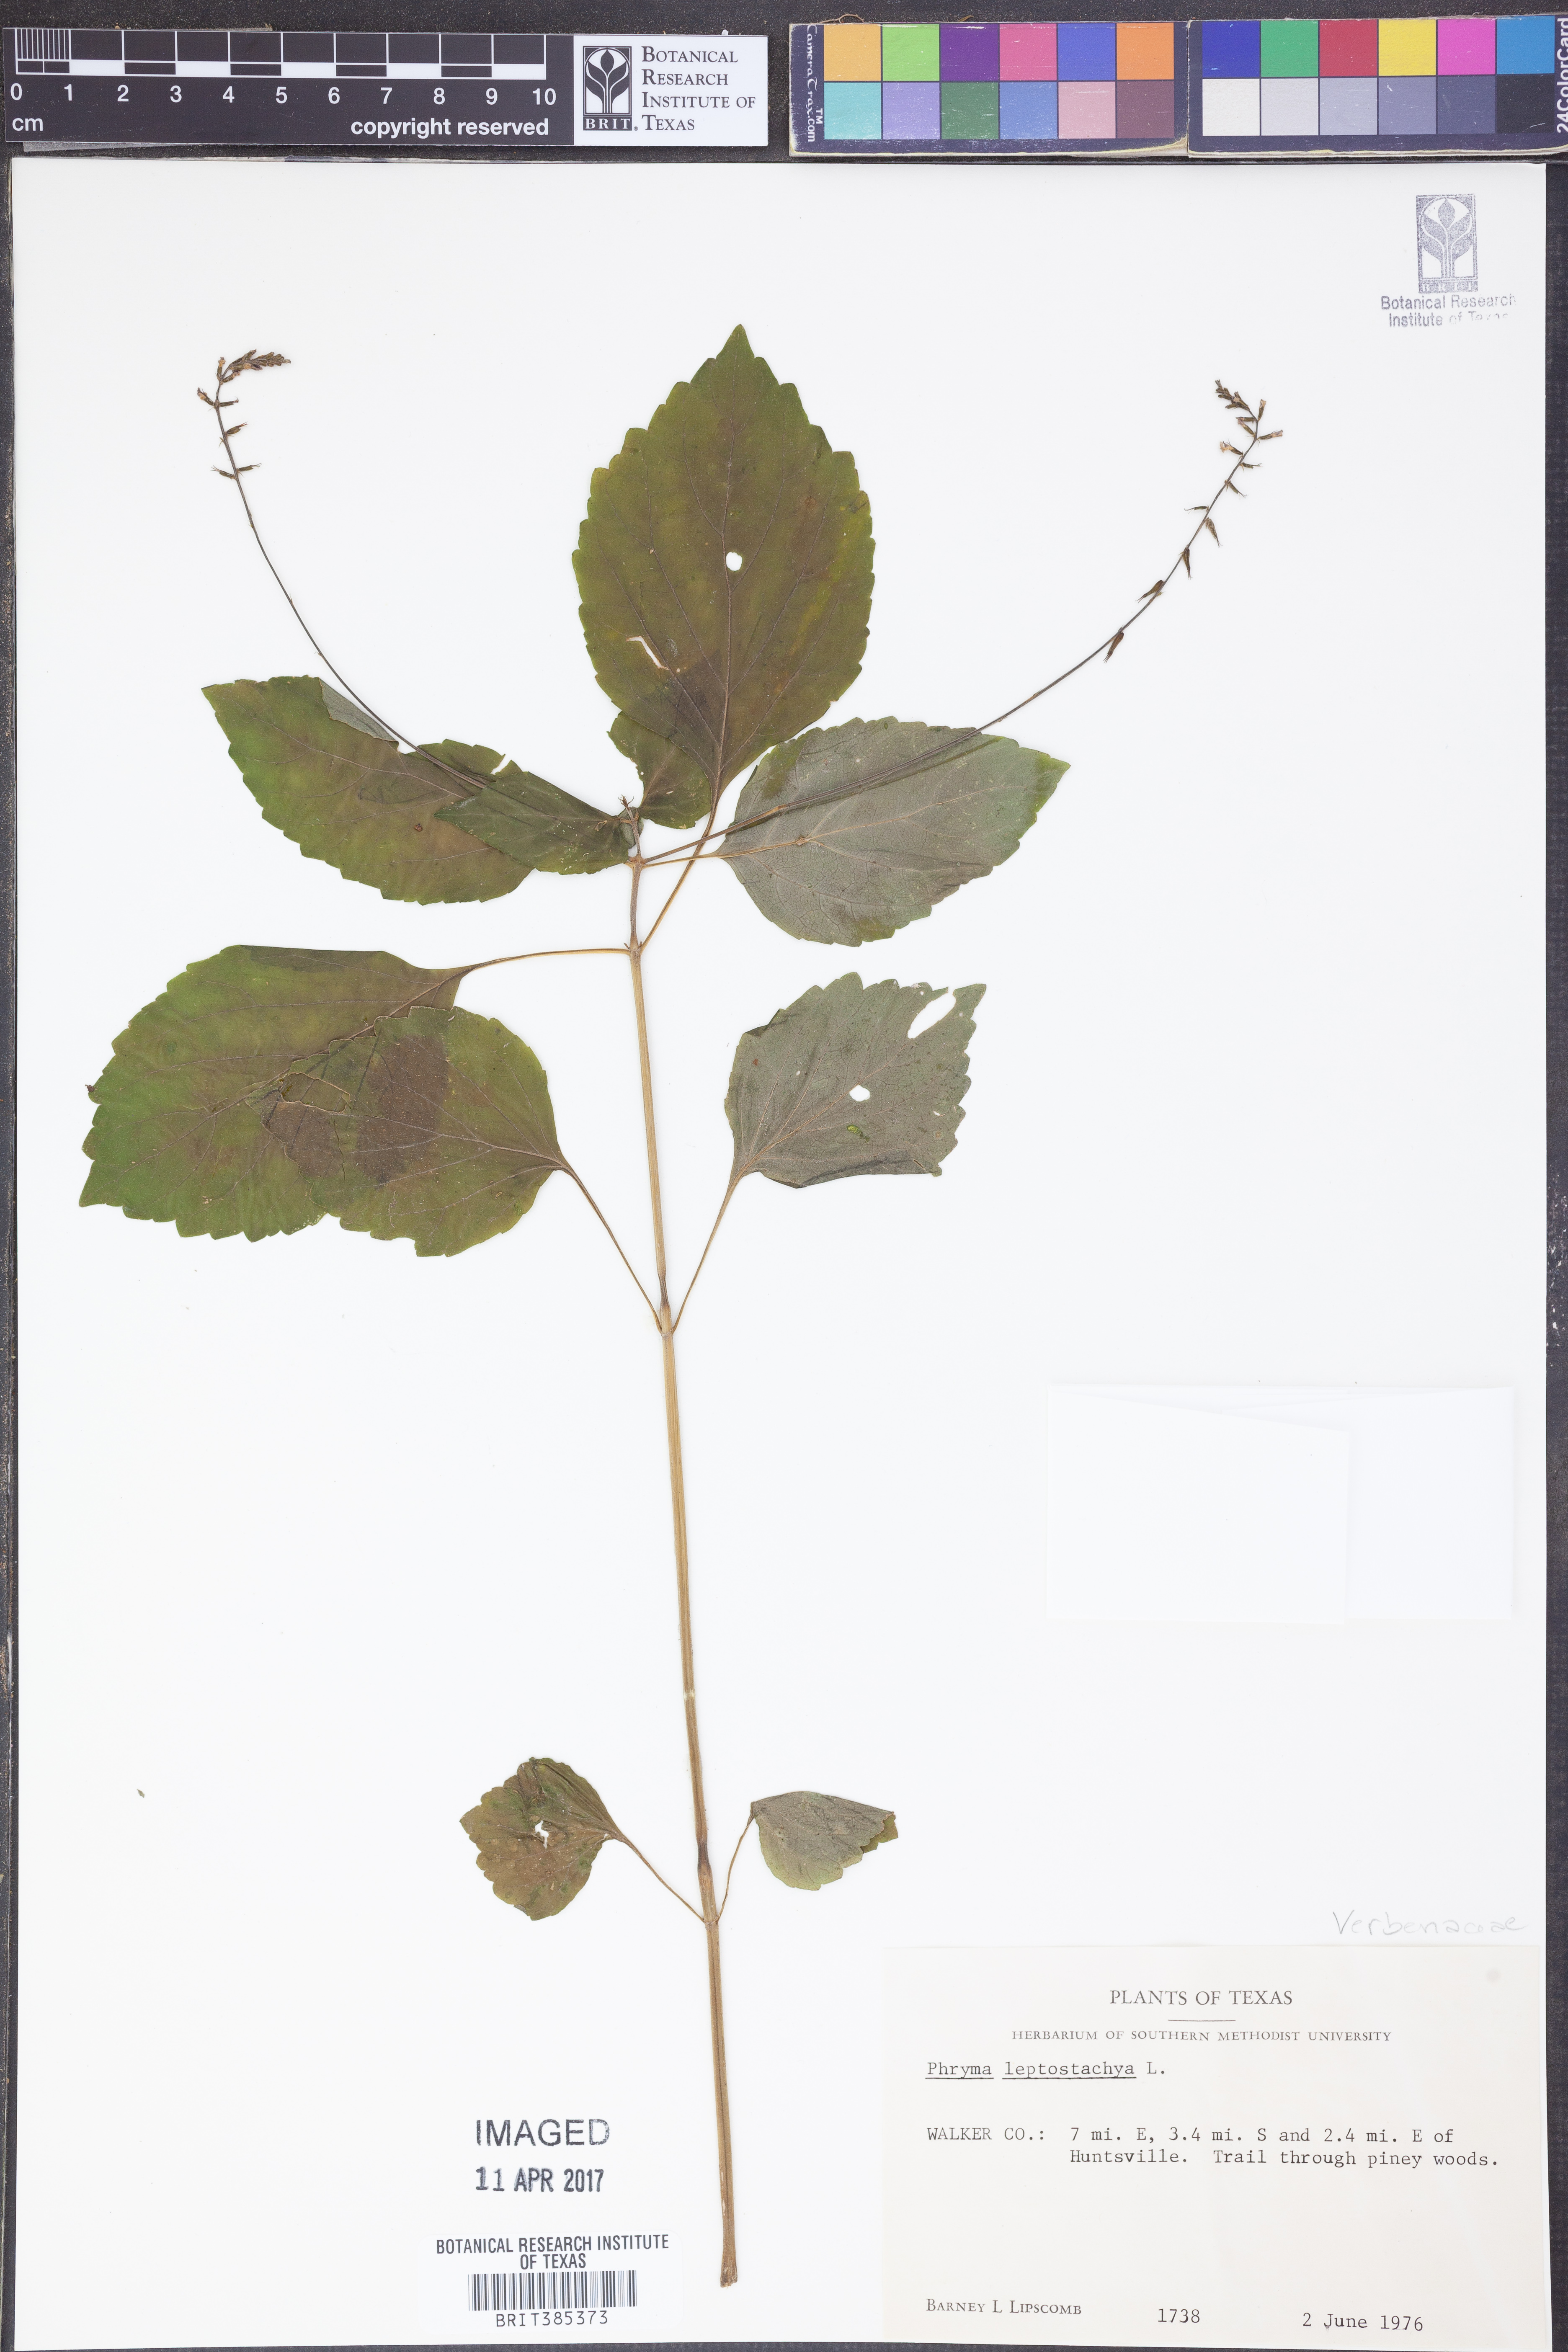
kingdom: Plantae
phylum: Tracheophyta
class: Magnoliopsida
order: Lamiales
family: Phrymaceae
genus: Phryma
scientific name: Phryma leptostachya
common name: American lopseed
